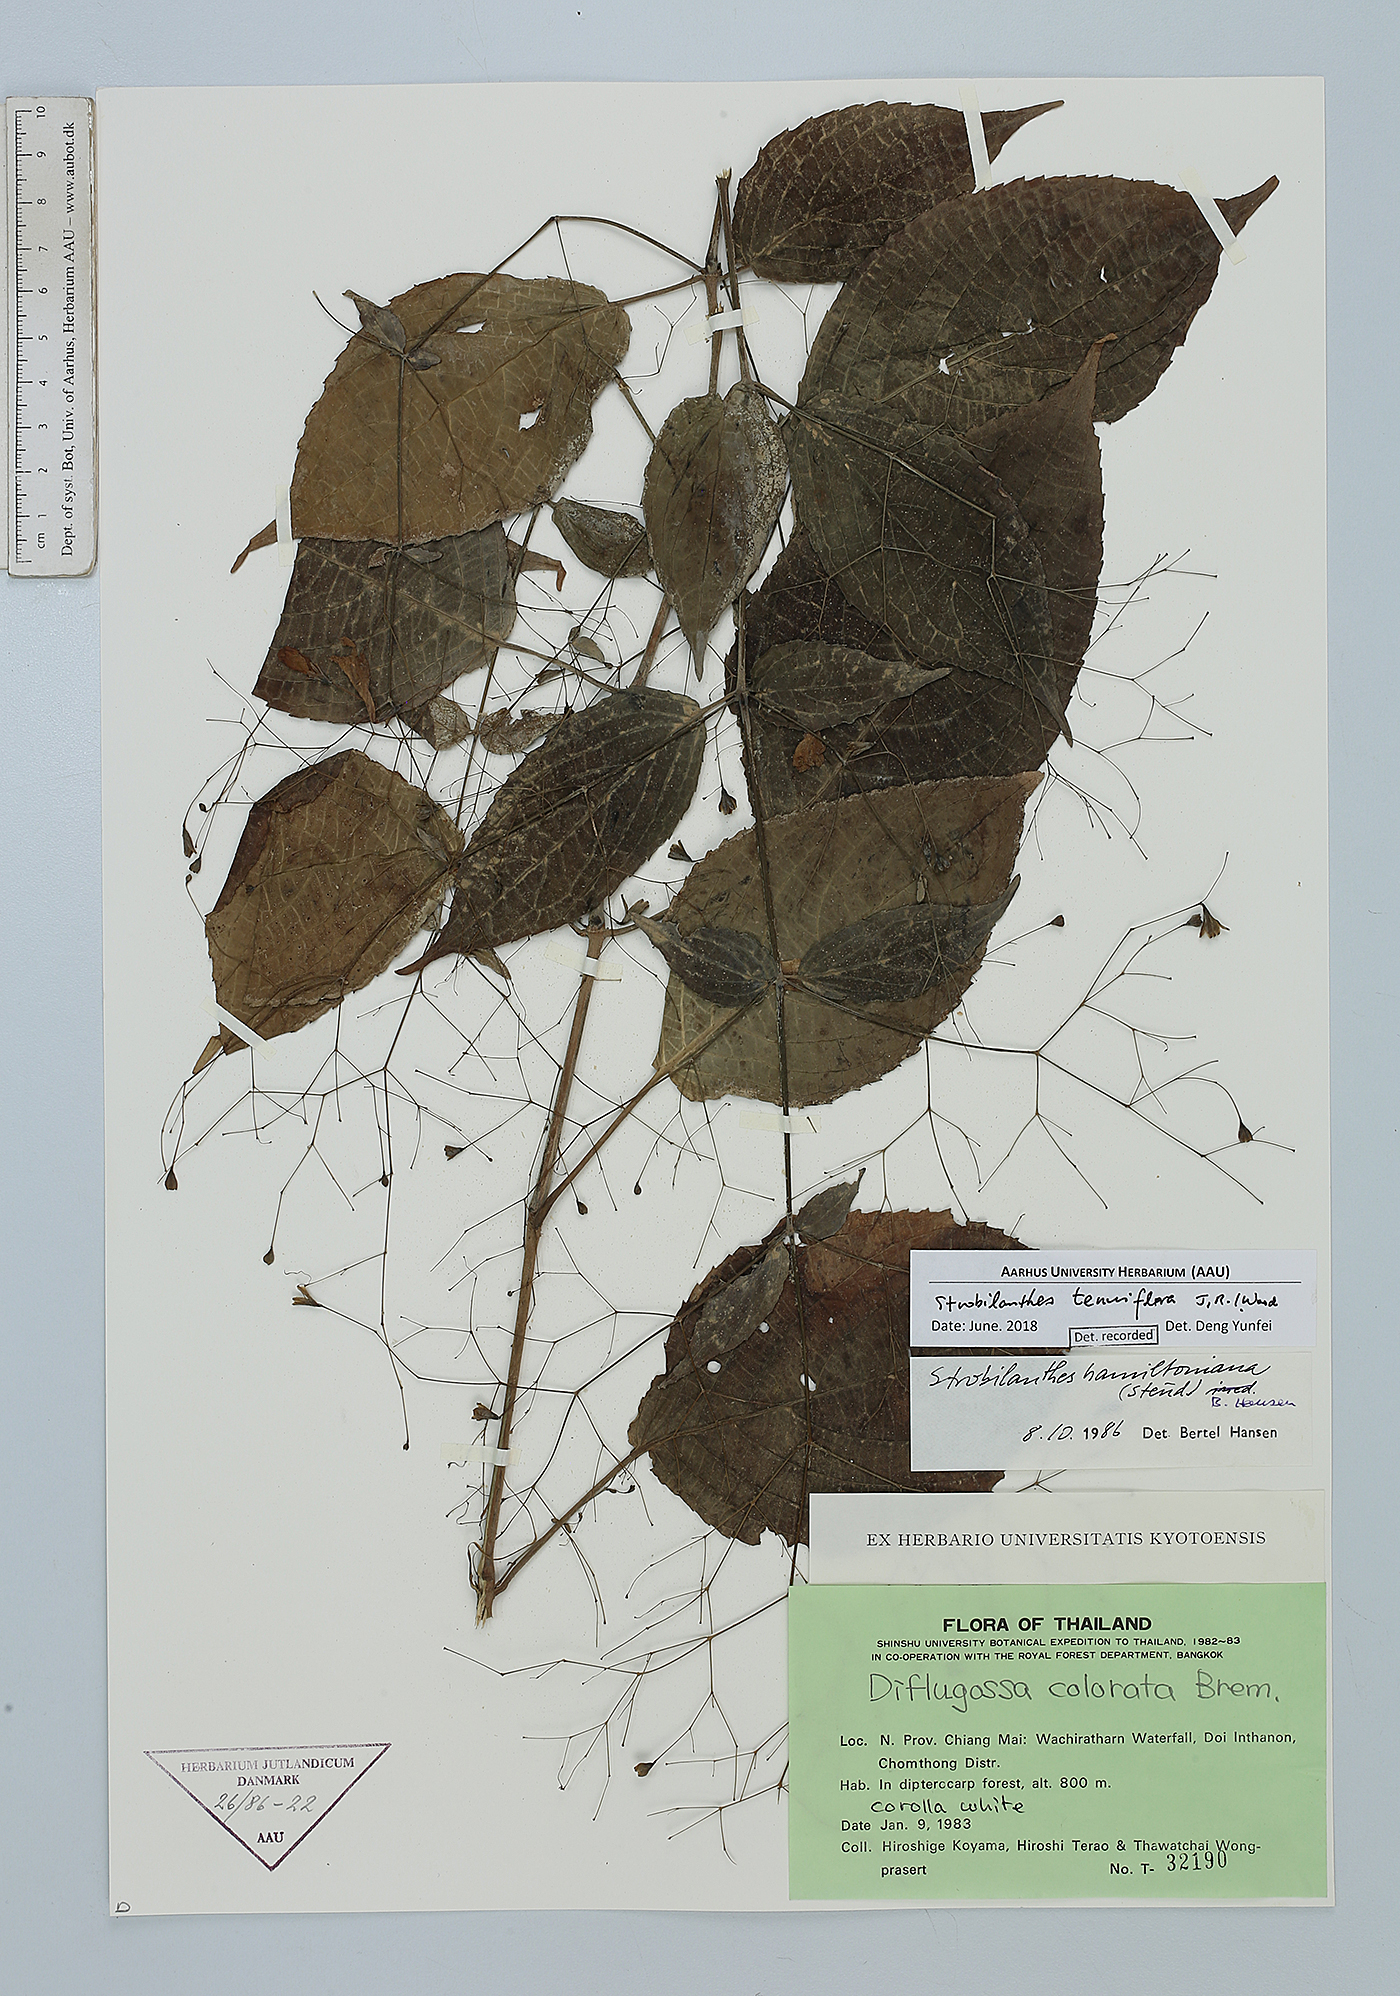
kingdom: Plantae
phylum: Tracheophyta
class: Magnoliopsida
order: Lamiales
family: Acanthaceae
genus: Strobilanthes
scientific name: Strobilanthes tenuiflora
